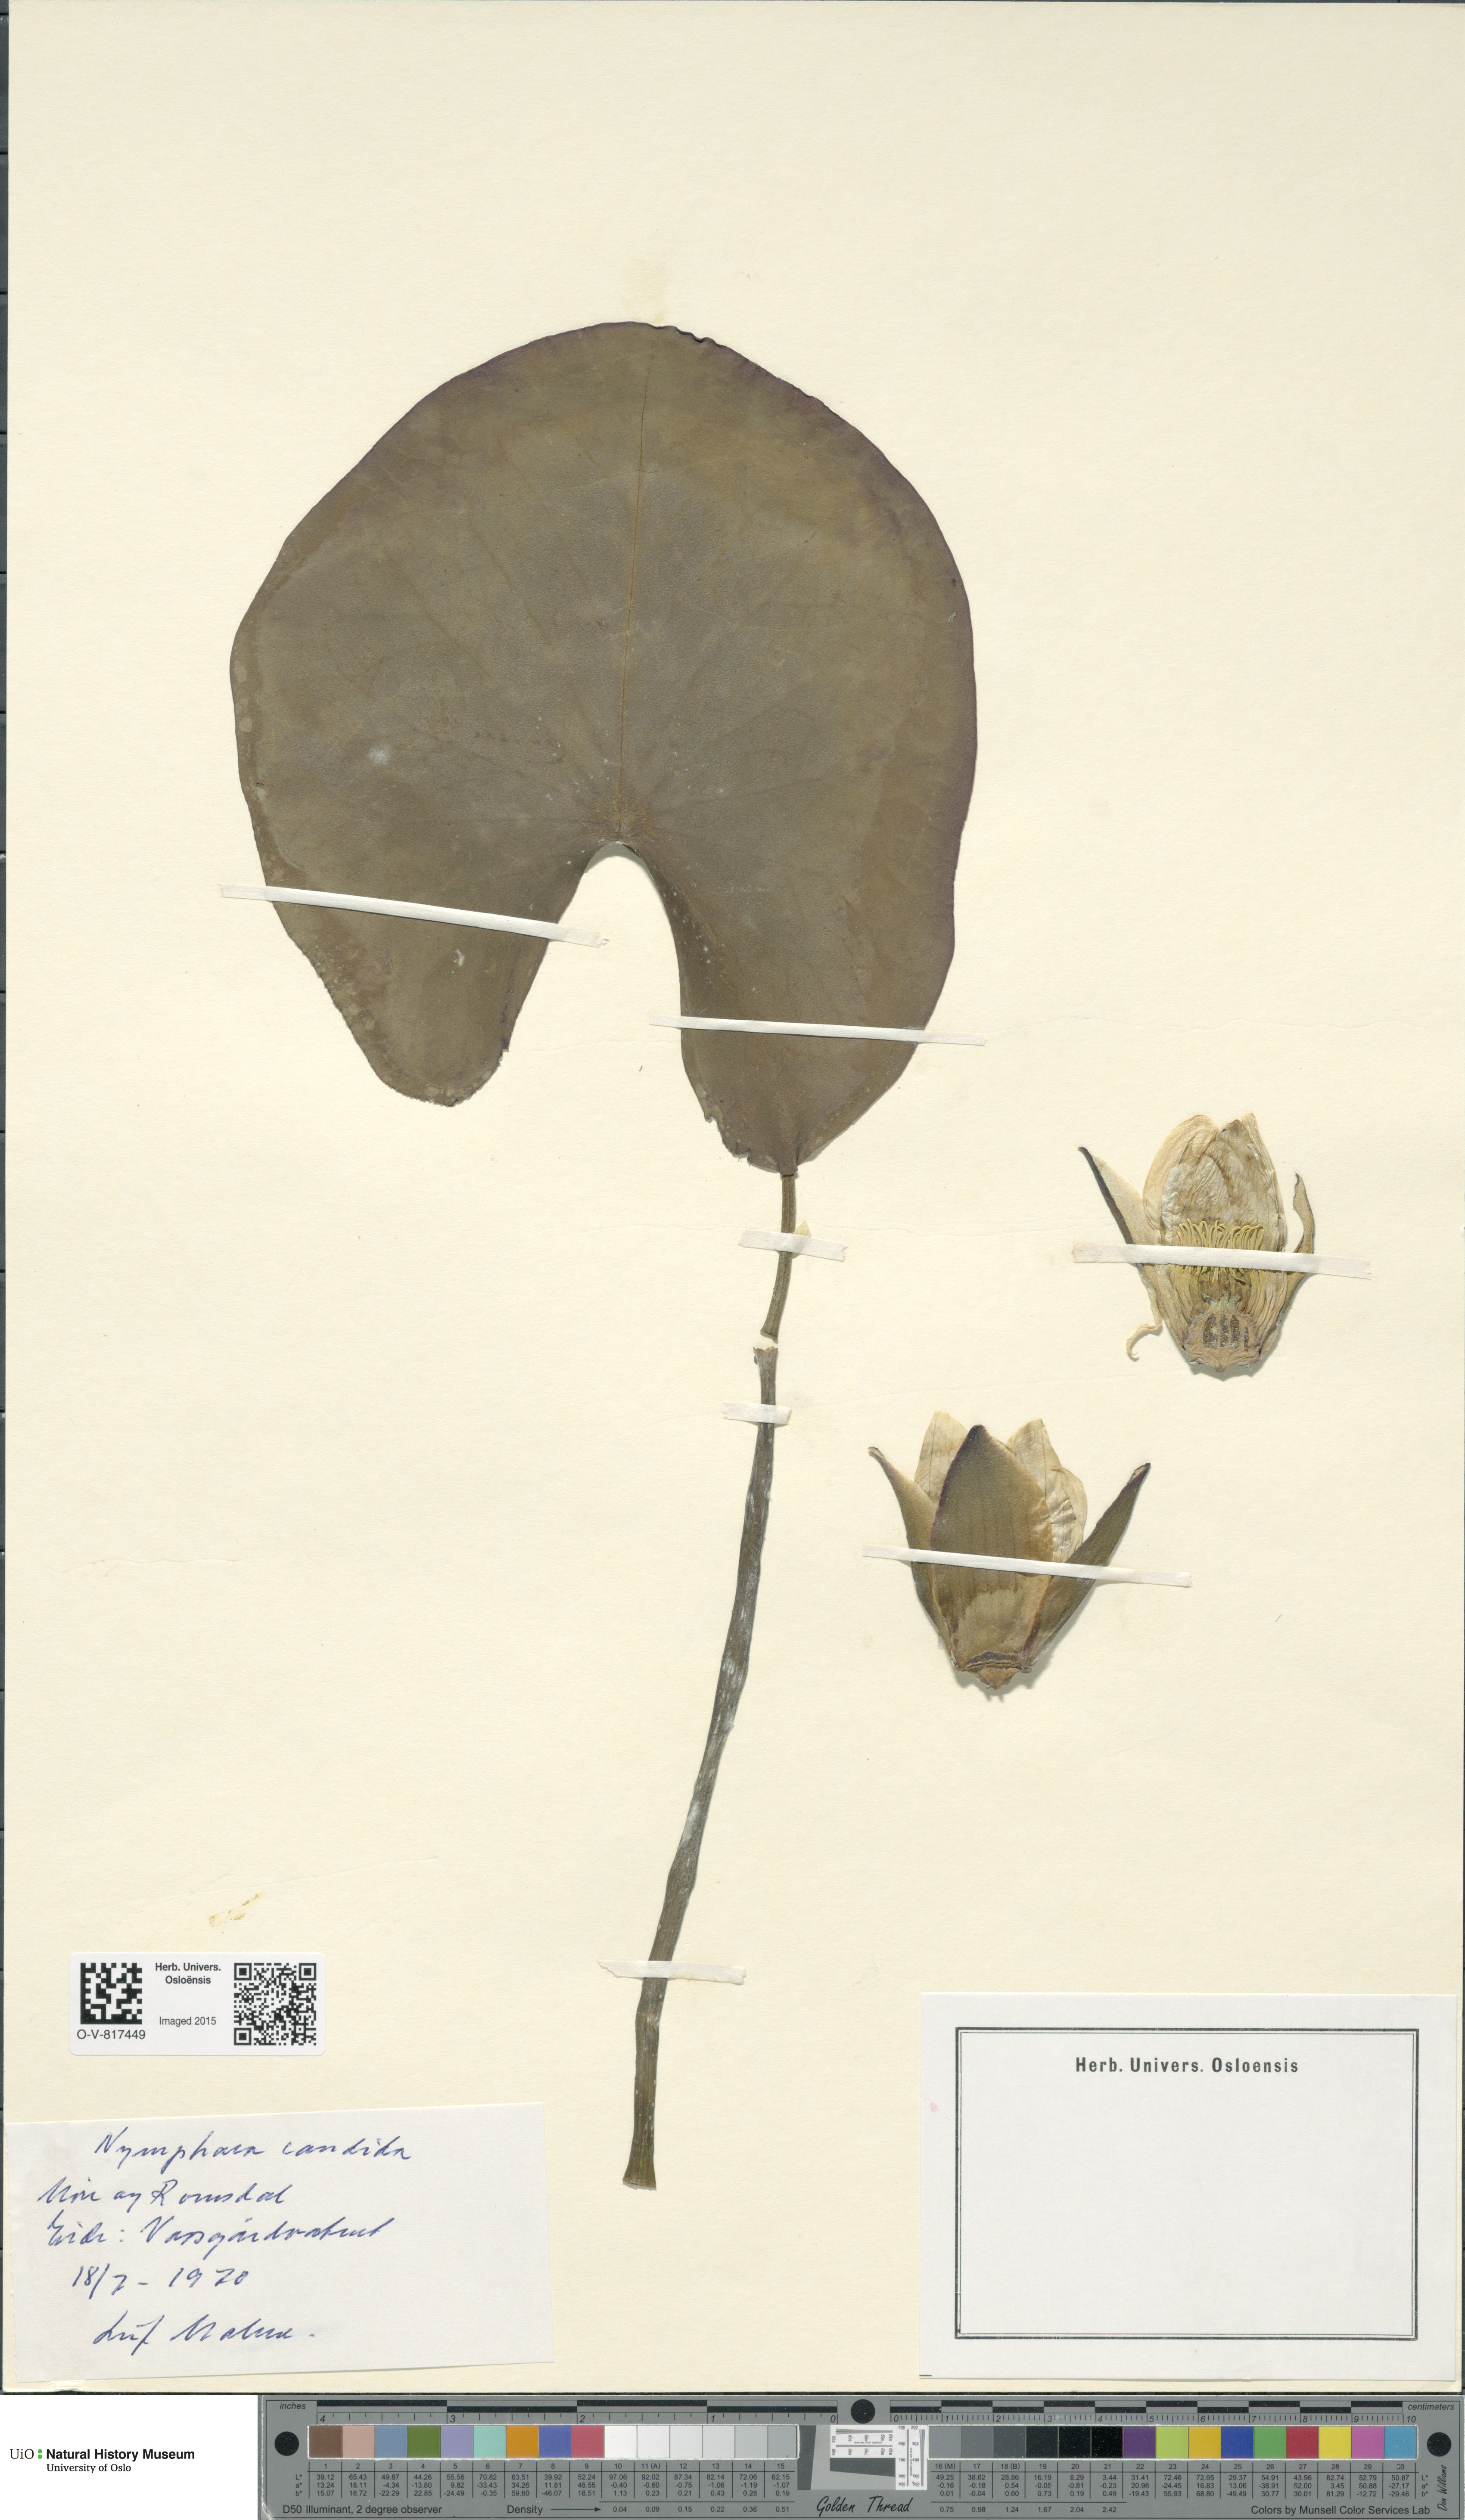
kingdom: Plantae
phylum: Tracheophyta
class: Magnoliopsida
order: Nymphaeales
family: Nymphaeaceae
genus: Nymphaea
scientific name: Nymphaea candida
